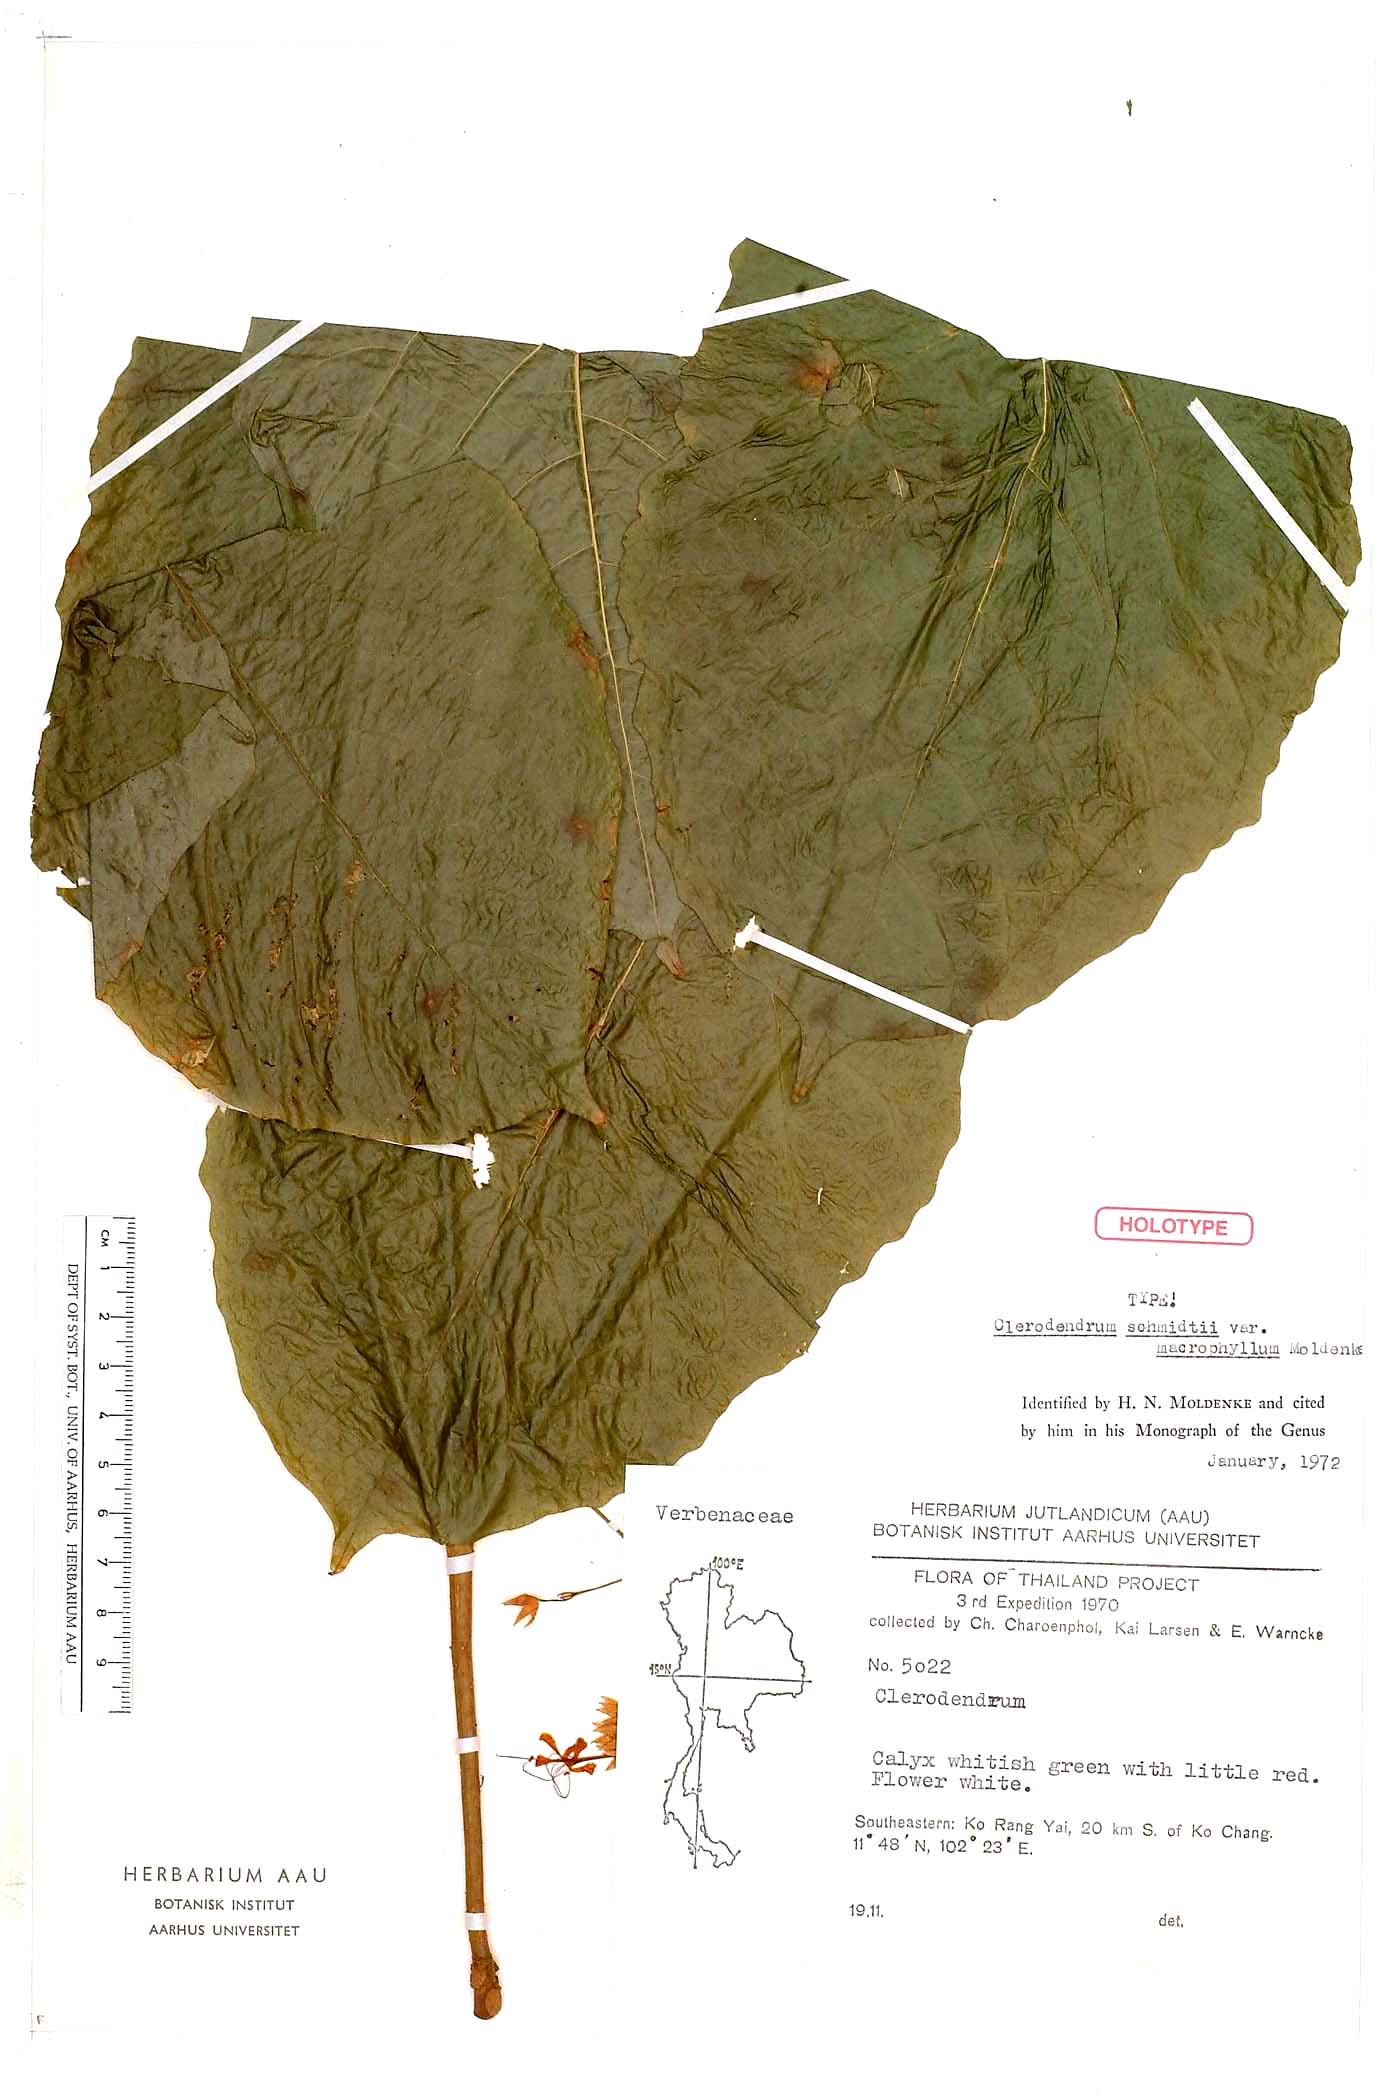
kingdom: Plantae
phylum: Tracheophyta
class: Magnoliopsida
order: Lamiales
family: Lamiaceae
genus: Clerodendrum
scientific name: Clerodendrum schmidtii
